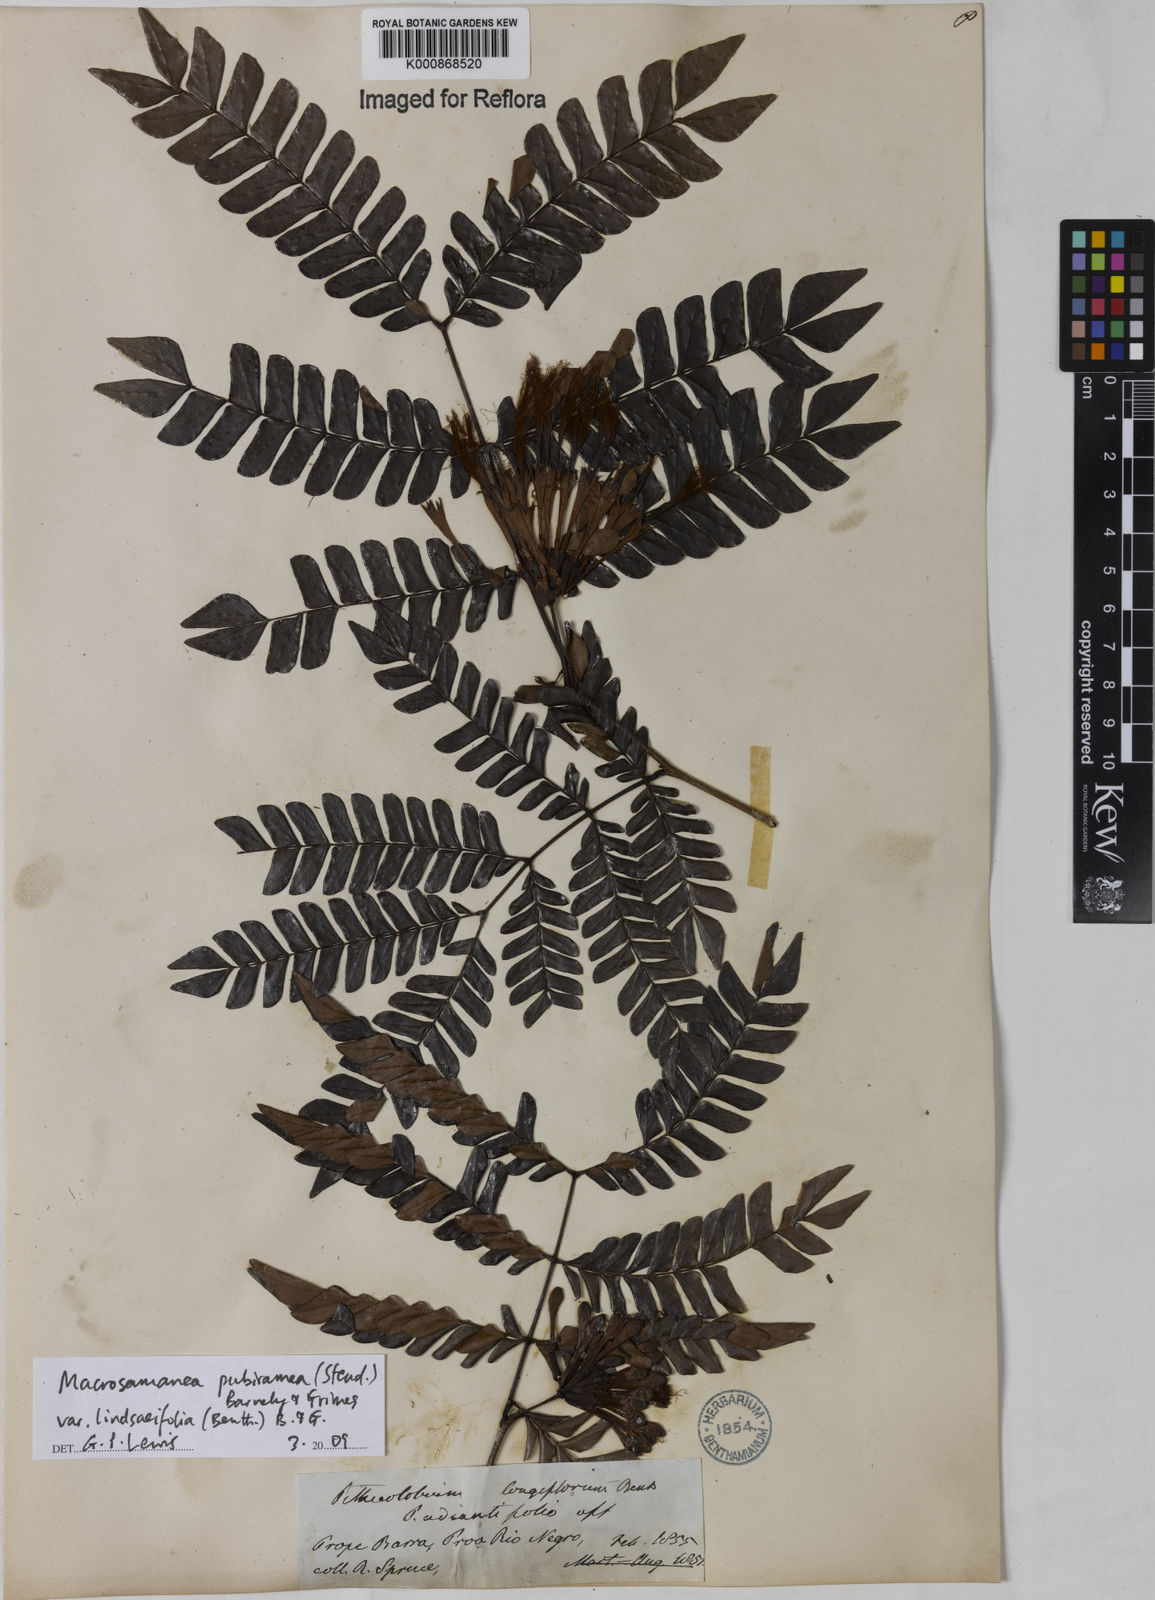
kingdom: Plantae
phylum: Tracheophyta
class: Magnoliopsida
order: Fabales
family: Fabaceae
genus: Macrosamanea
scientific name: Macrosamanea pubiramea
